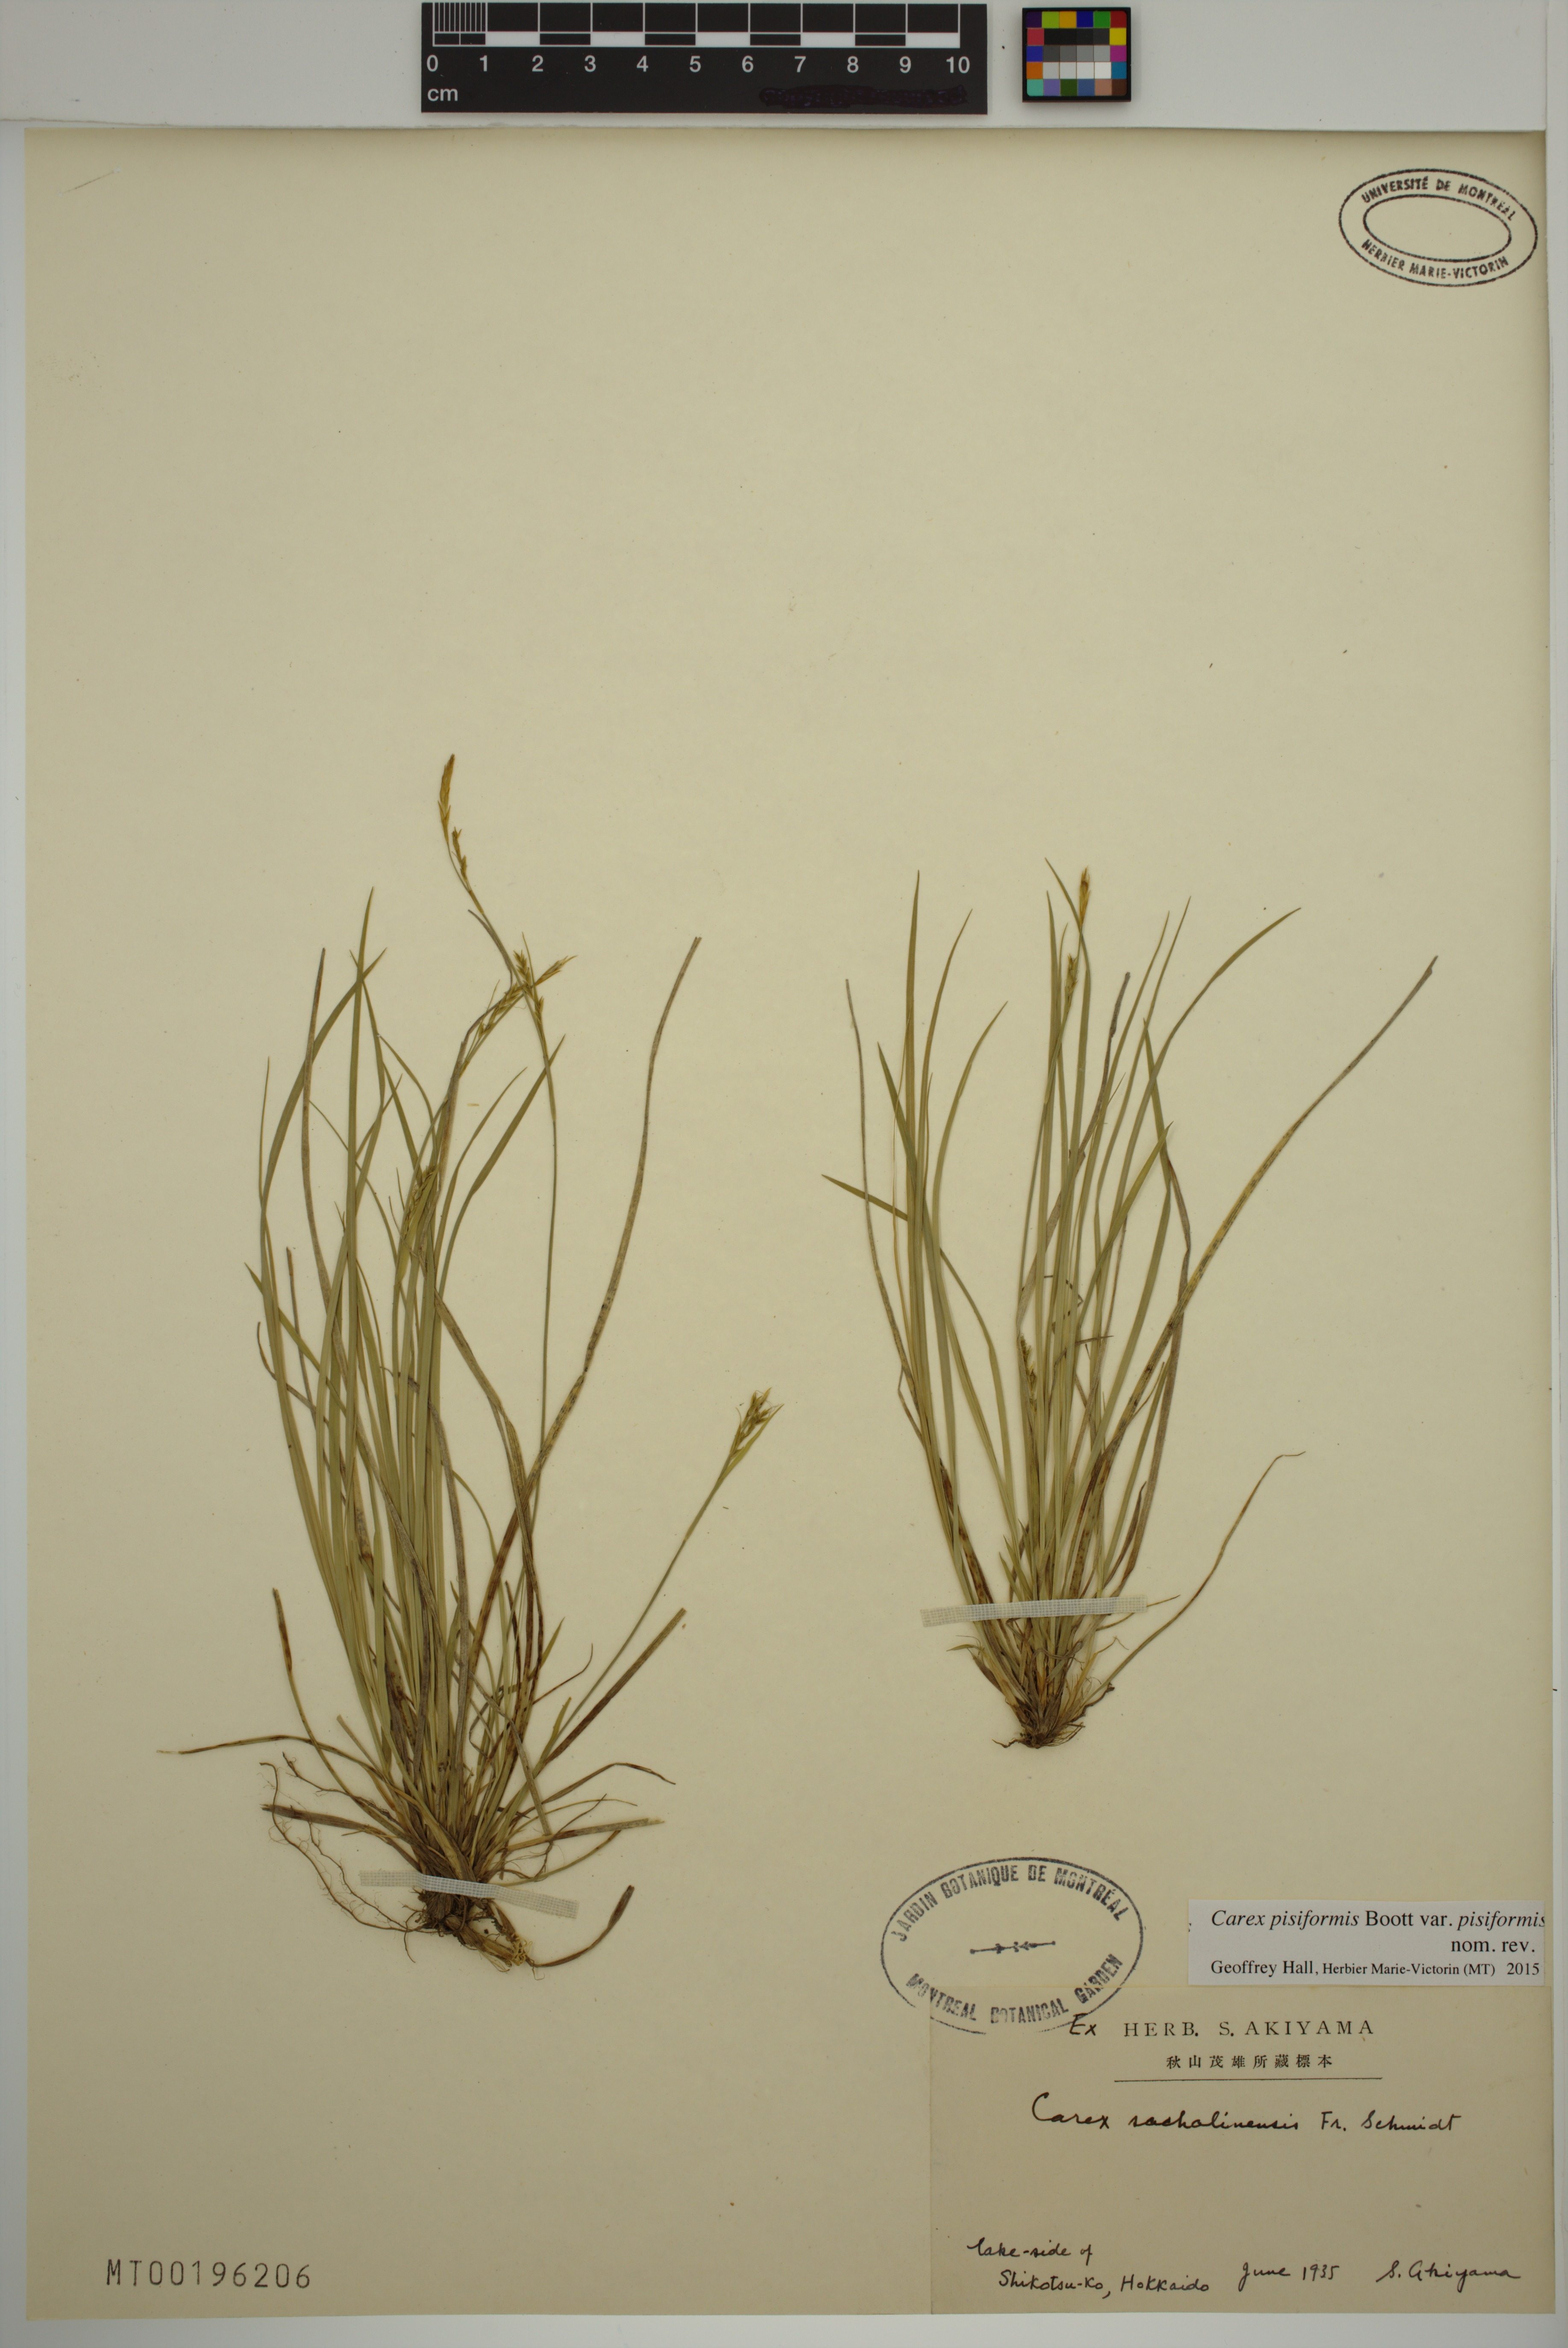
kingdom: Plantae
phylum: Tracheophyta
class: Liliopsida
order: Poales
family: Cyperaceae
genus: Carex
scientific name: Carex pisiformis
